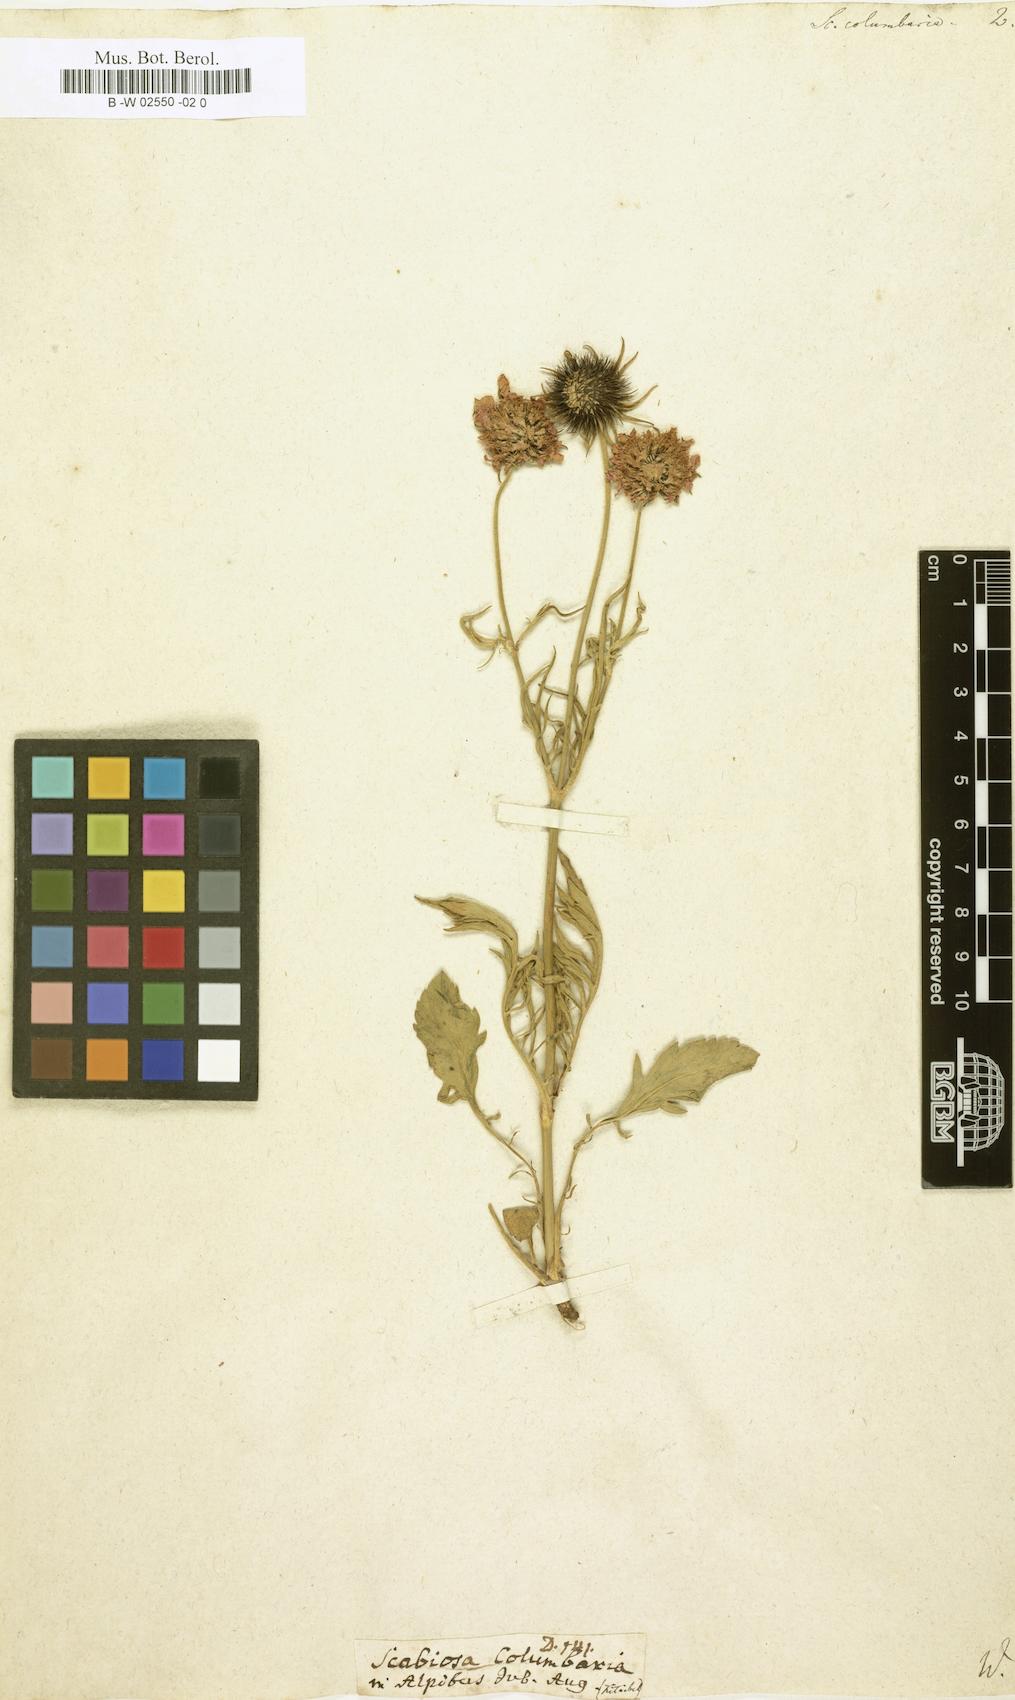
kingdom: Plantae
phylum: Tracheophyta
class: Magnoliopsida
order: Dipsacales
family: Caprifoliaceae
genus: Scabiosa
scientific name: Scabiosa columbaria
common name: Small scabious
